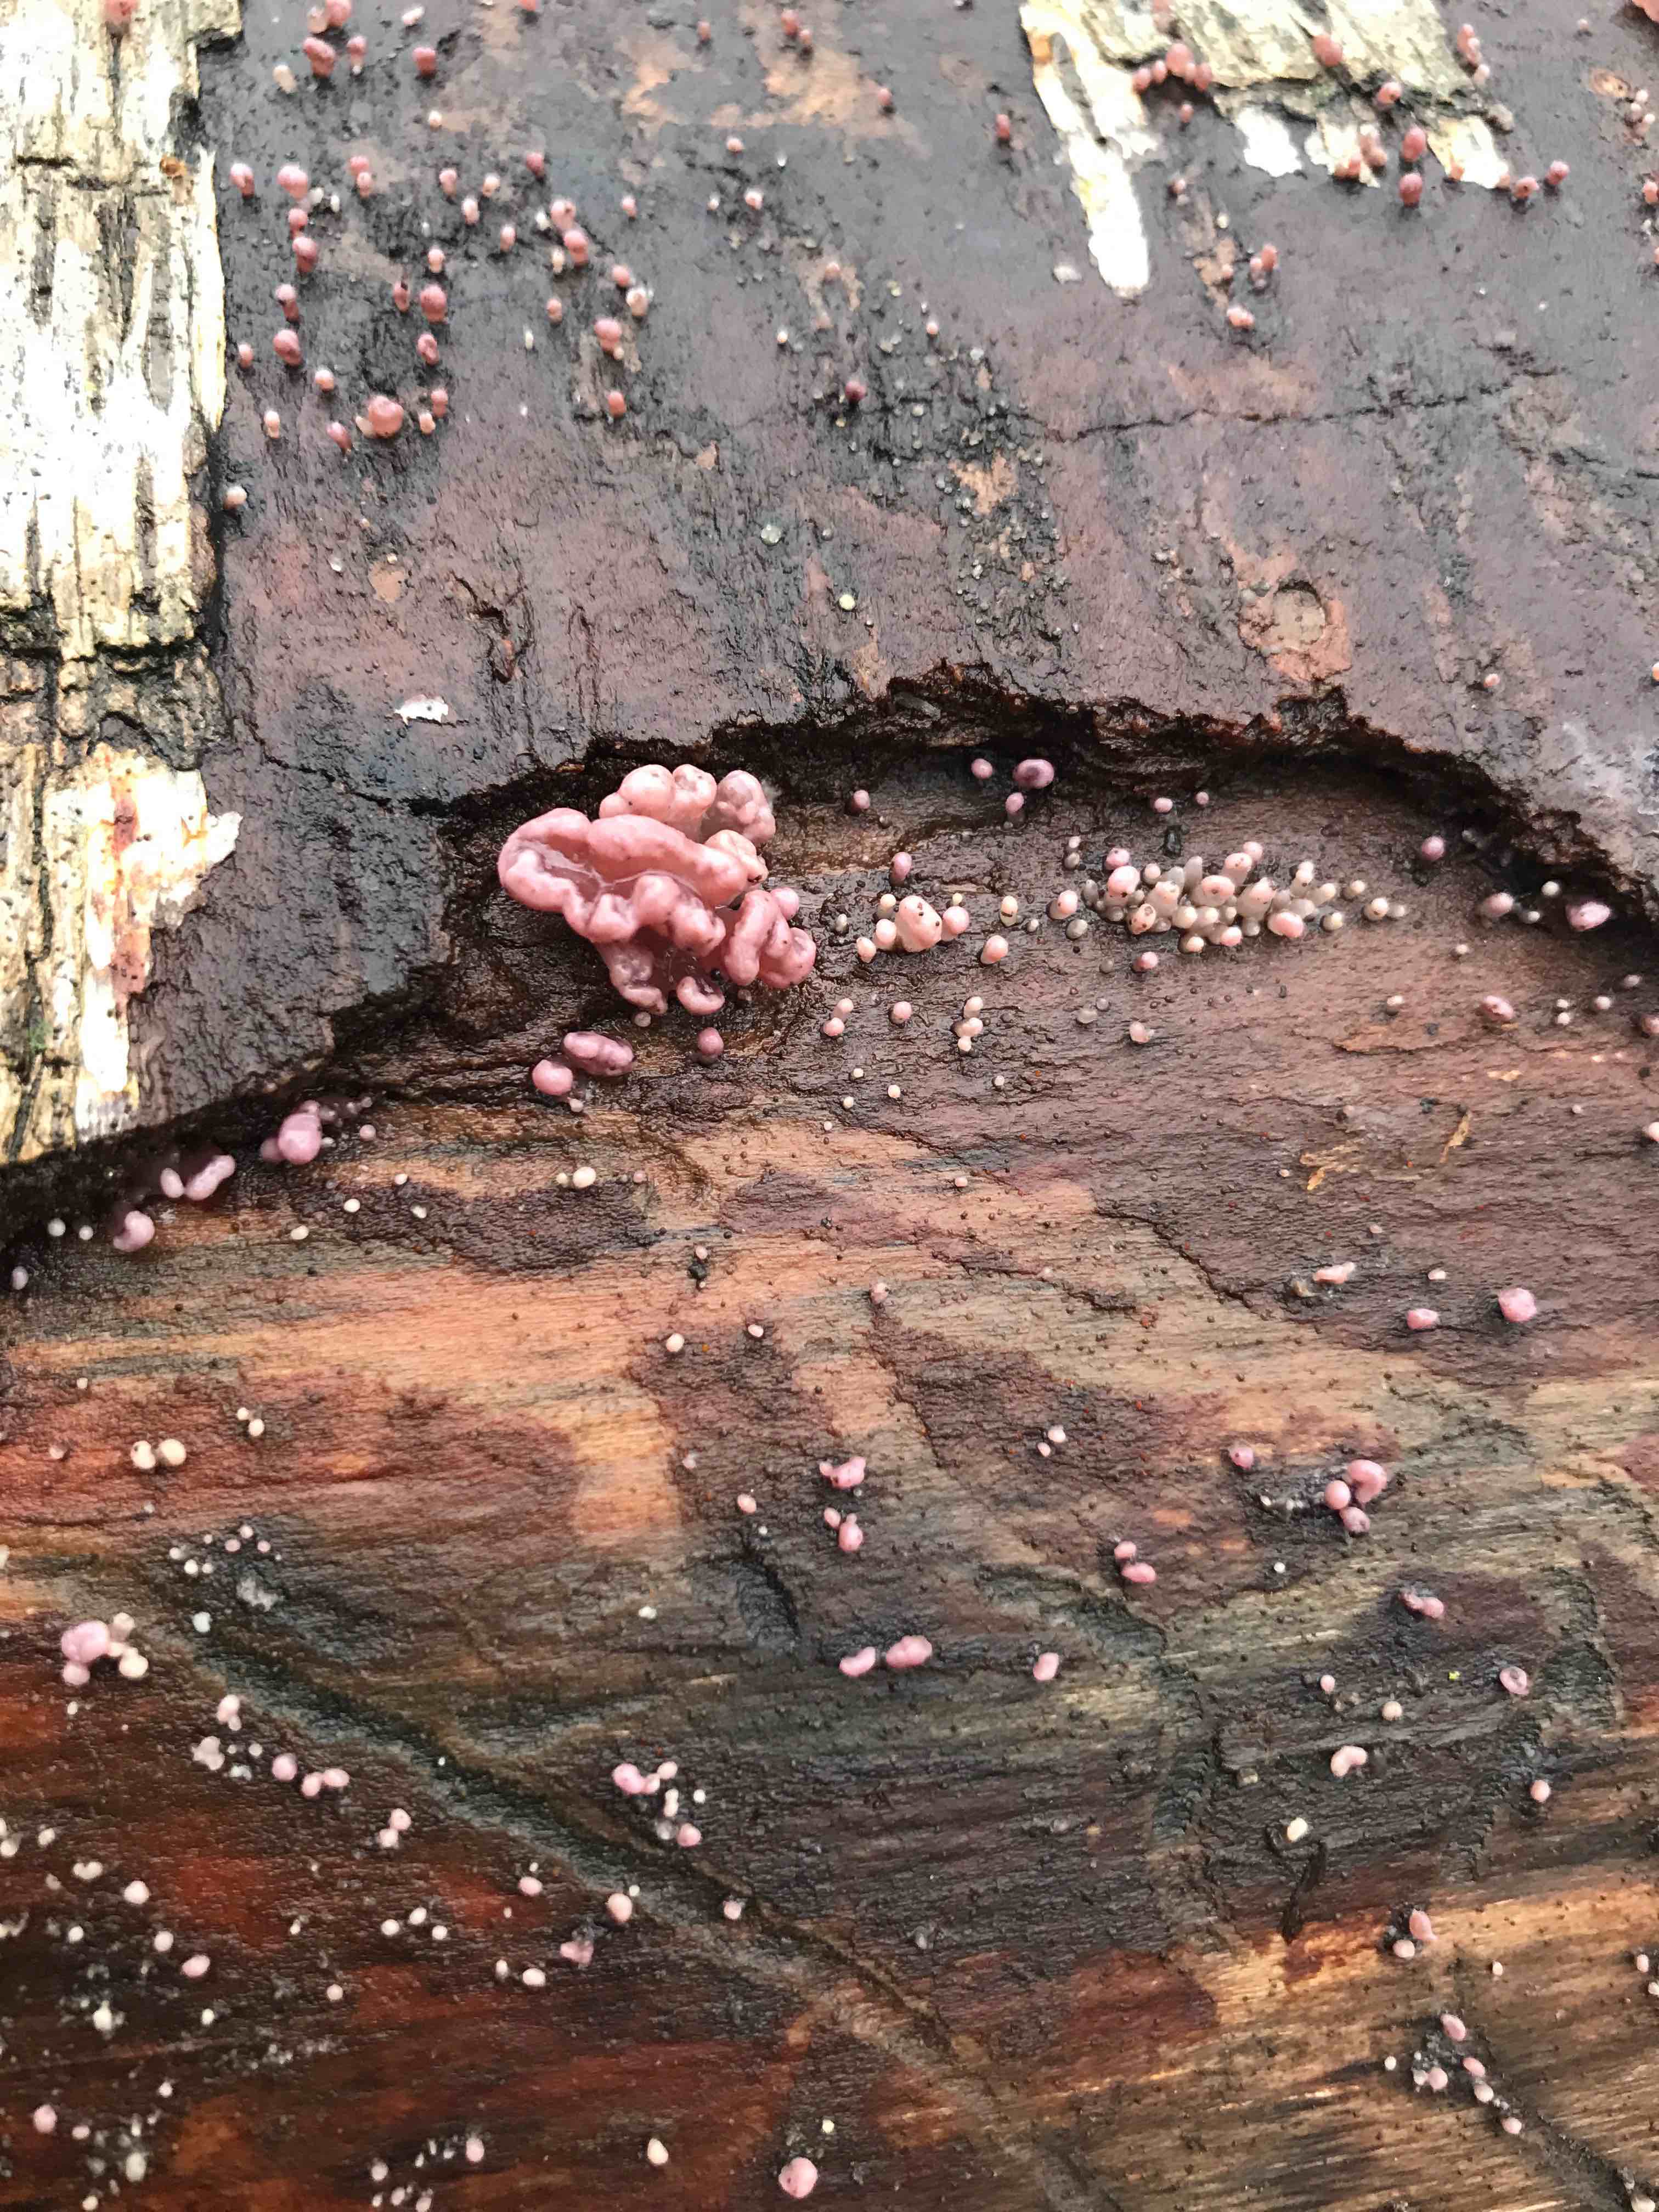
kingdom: Fungi
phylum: Ascomycota
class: Leotiomycetes
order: Helotiales
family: Gelatinodiscaceae
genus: Ascocoryne
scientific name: Ascocoryne sarcoides
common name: rødlilla sejskive
